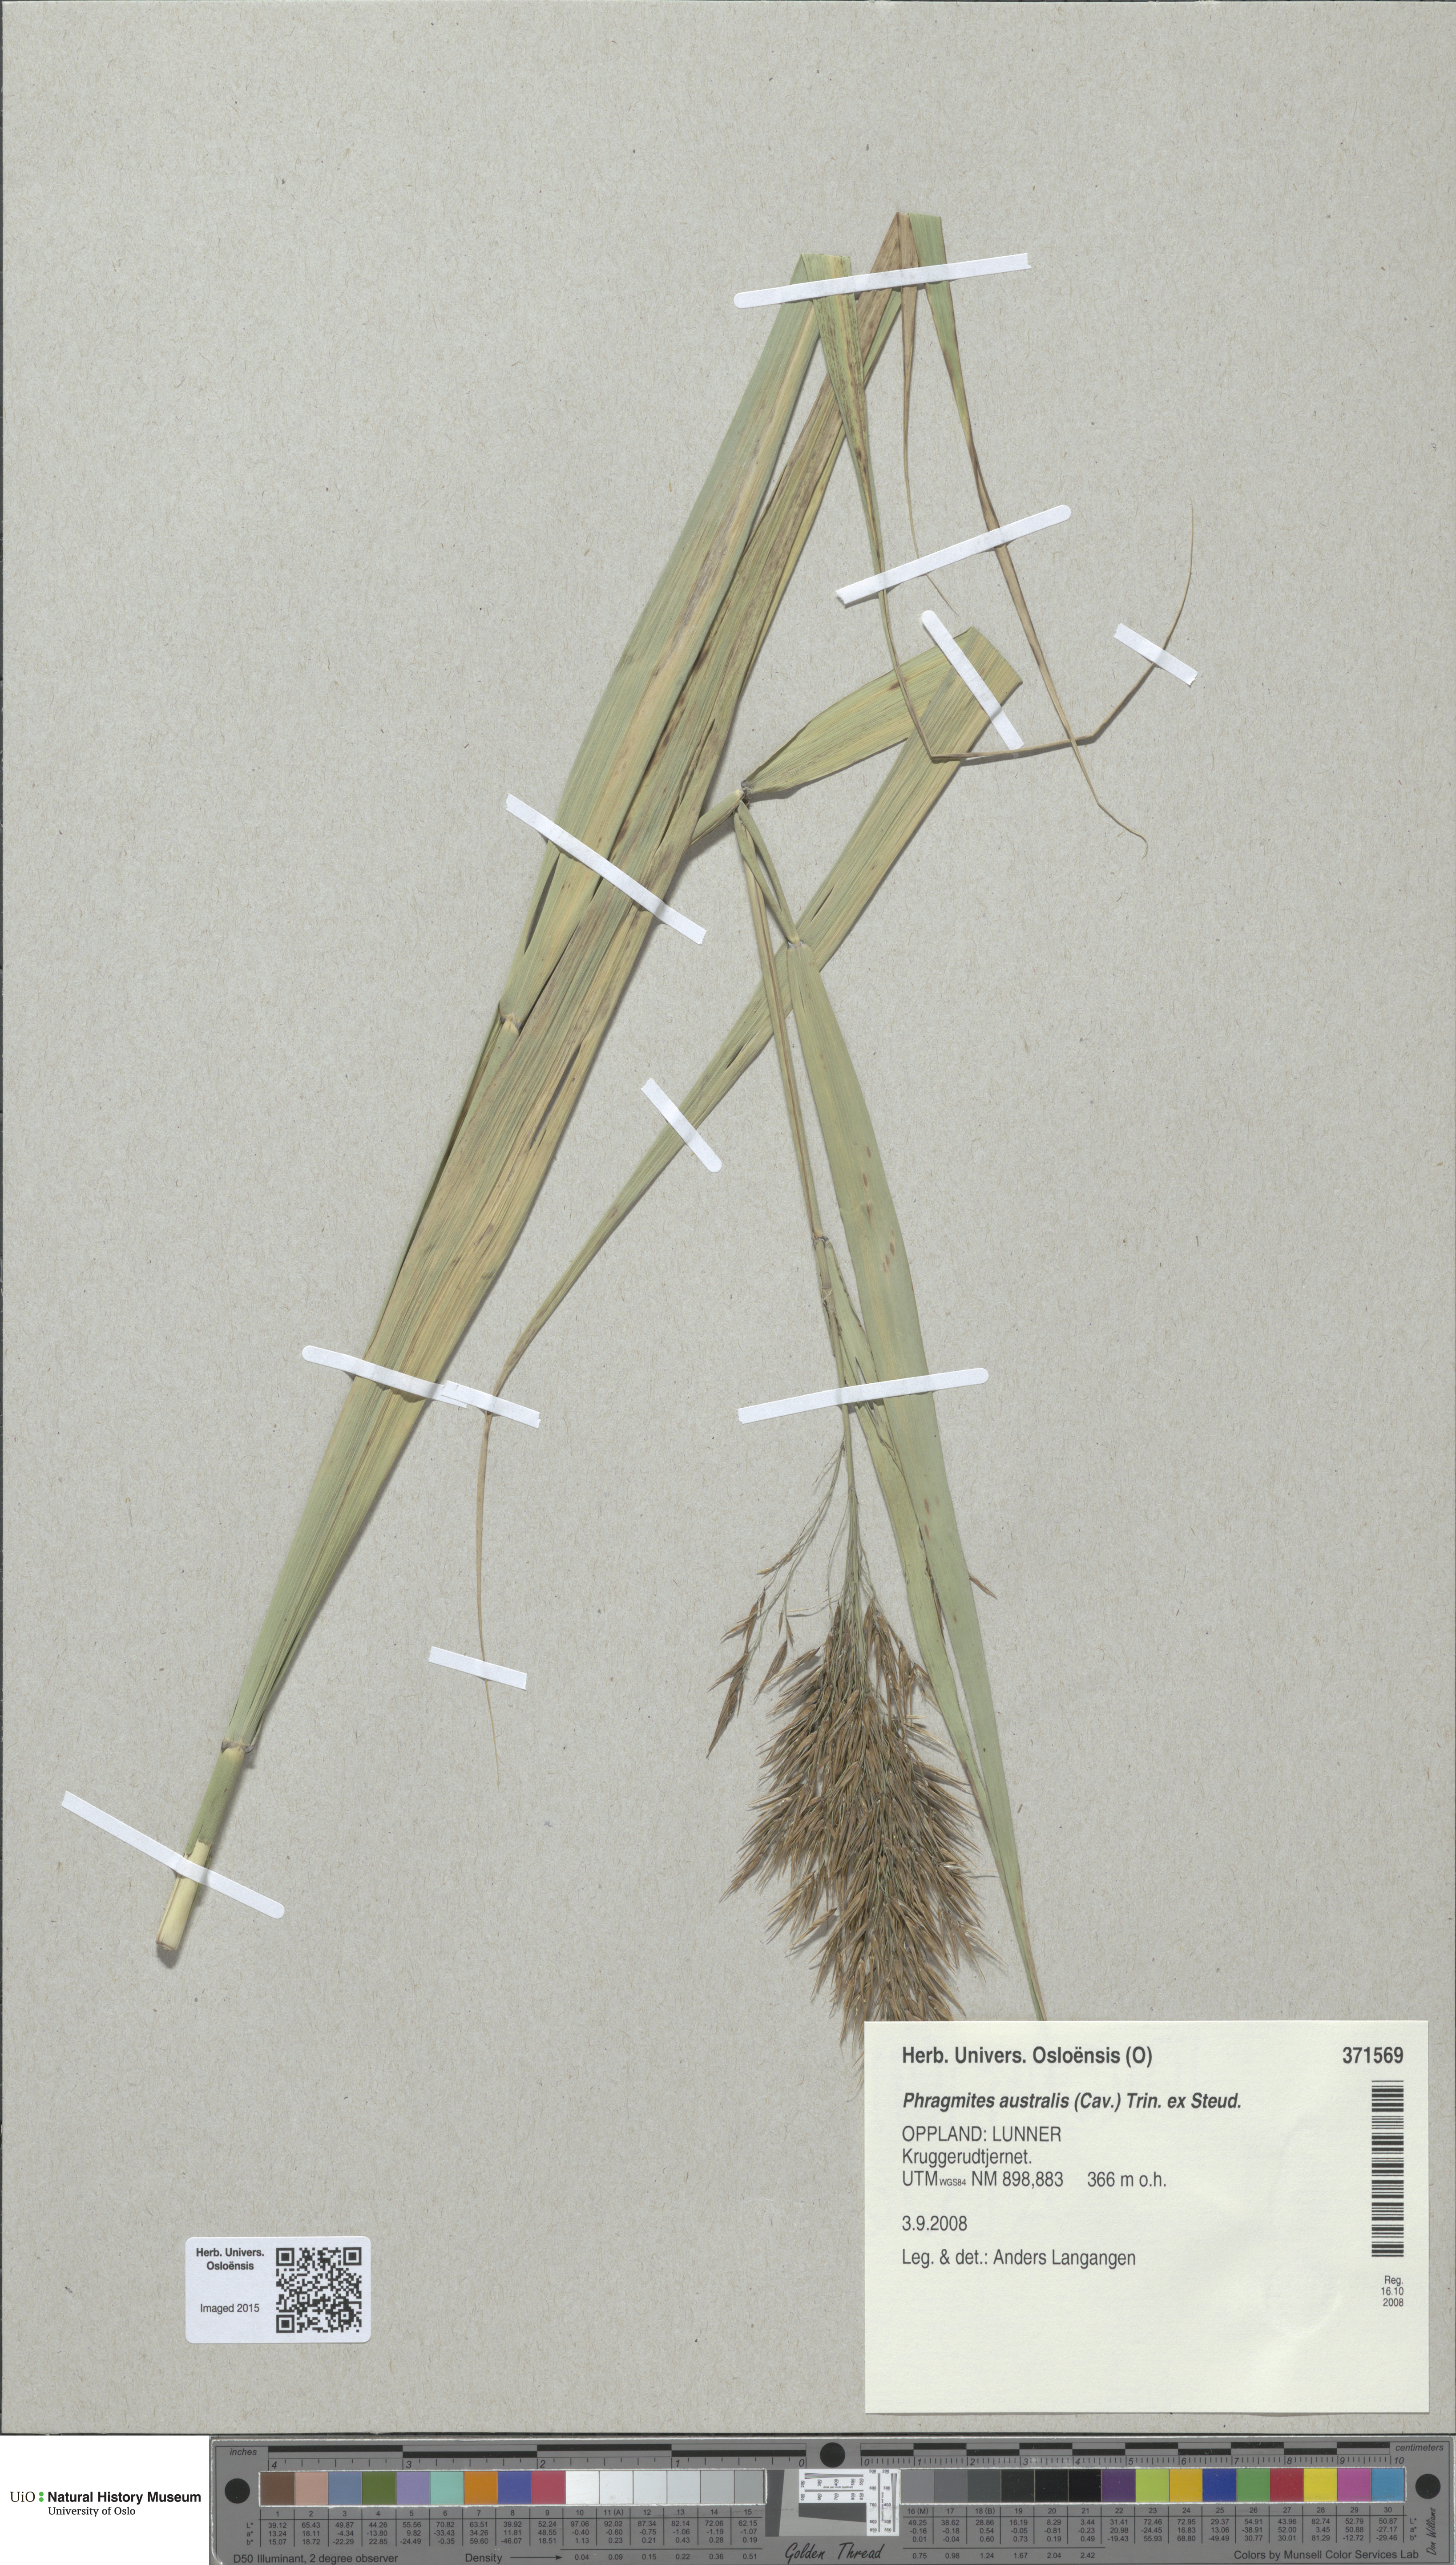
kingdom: Plantae
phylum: Tracheophyta
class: Liliopsida
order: Poales
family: Poaceae
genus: Phragmites
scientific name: Phragmites australis
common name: Common reed
